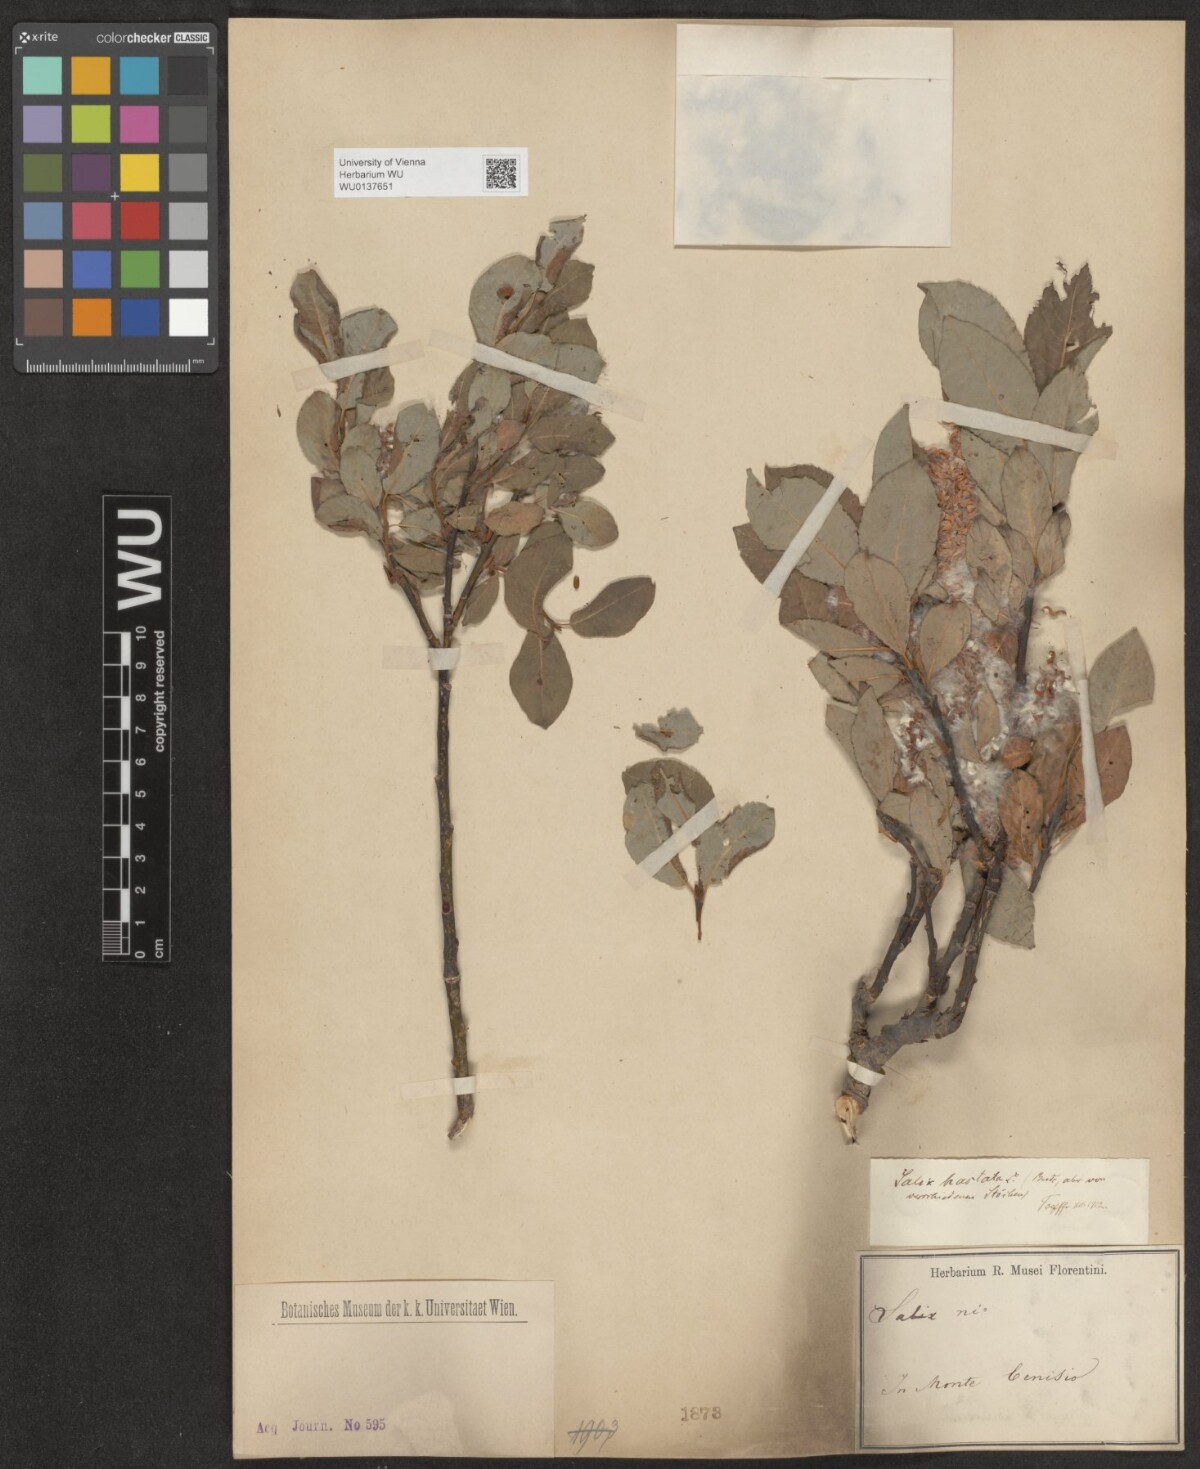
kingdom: Plantae
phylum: Tracheophyta
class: Magnoliopsida
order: Malpighiales
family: Salicaceae
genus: Salix
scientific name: Salix hastata
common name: Halberd willow
